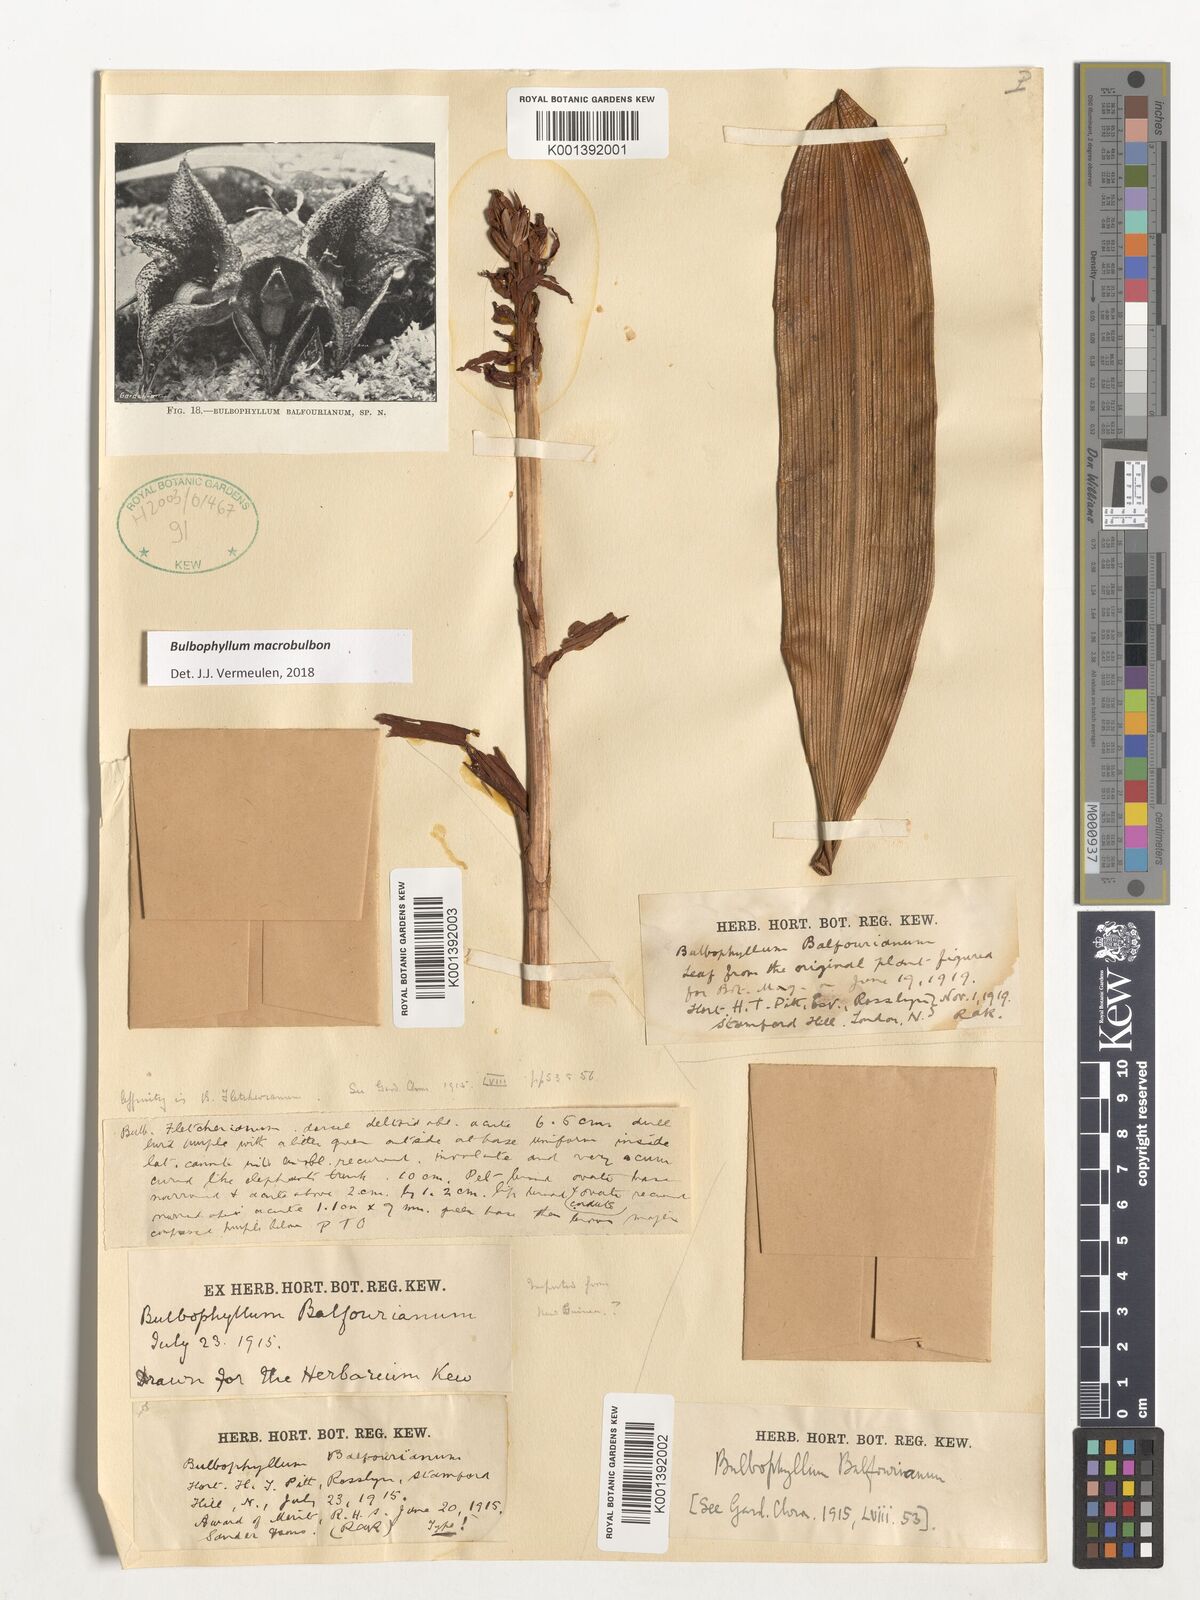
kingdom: Plantae
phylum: Tracheophyta
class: Liliopsida
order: Asparagales
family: Orchidaceae
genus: Bulbophyllum
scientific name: Bulbophyllum macrobulbon
